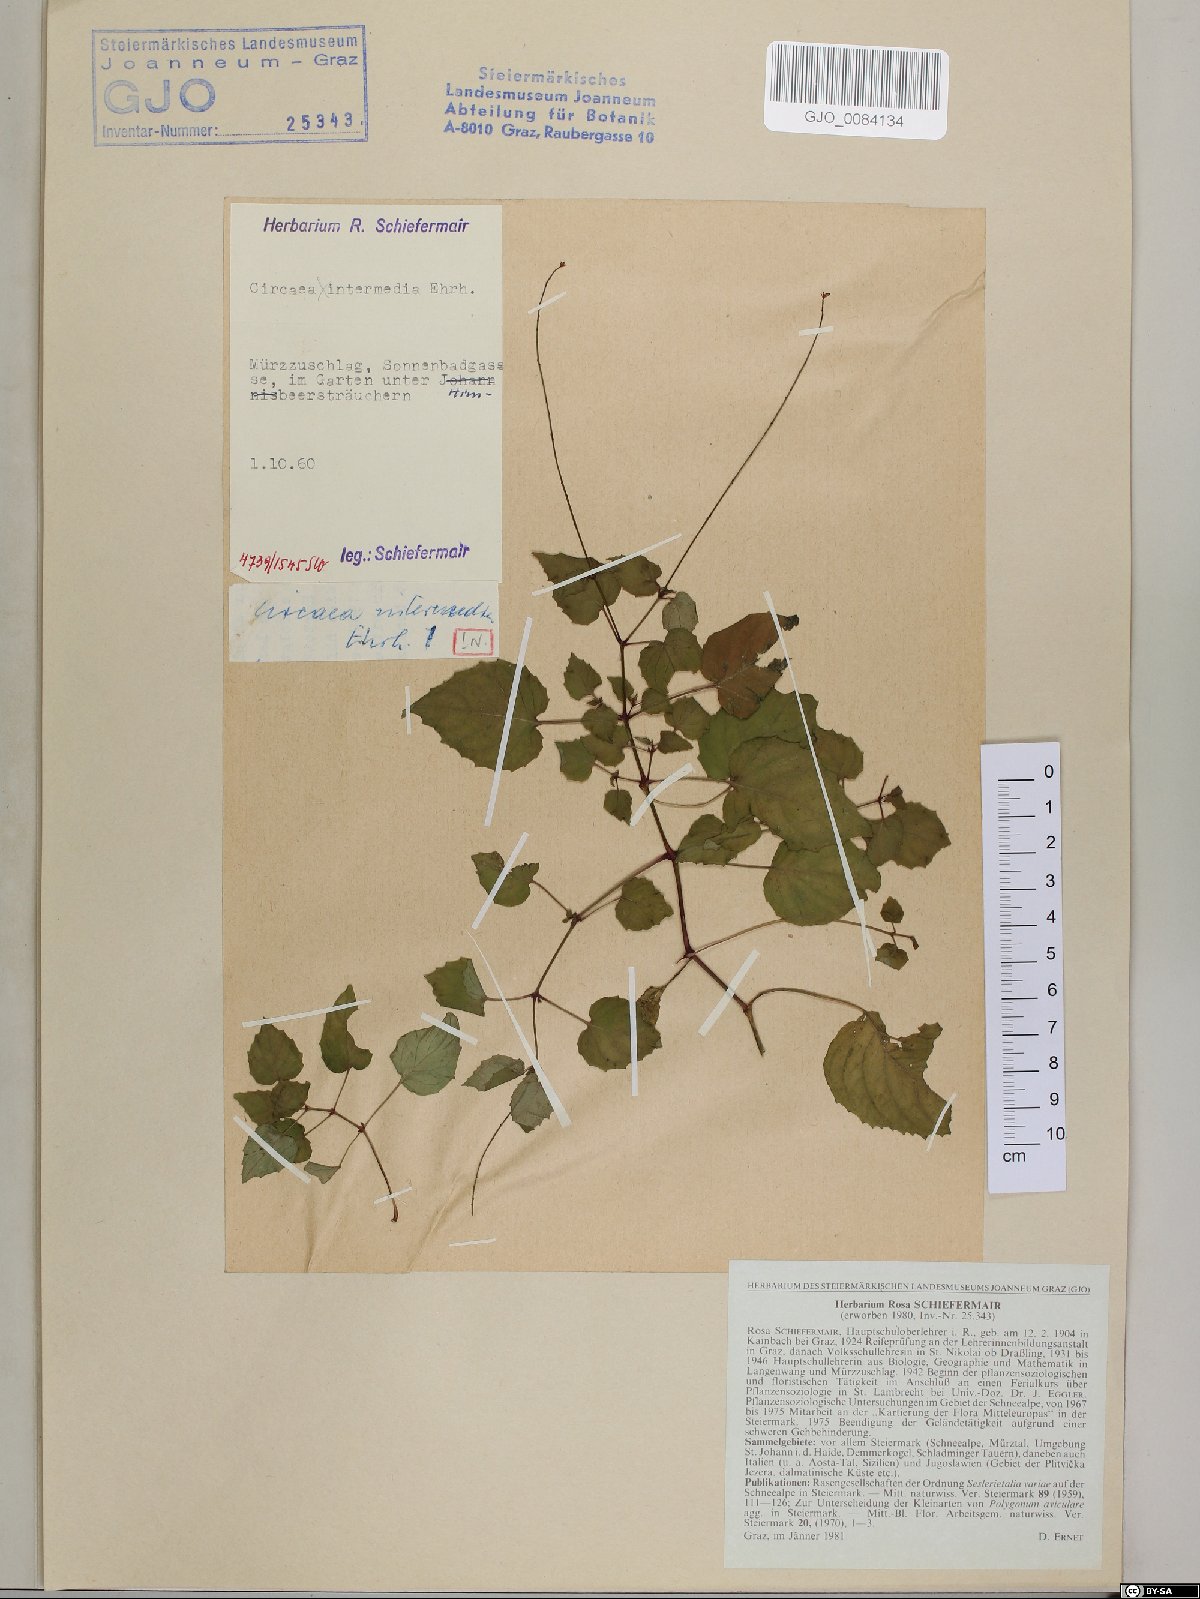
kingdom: Plantae
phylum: Tracheophyta
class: Magnoliopsida
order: Myrtales
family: Onagraceae
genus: Circaea
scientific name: Circaea intermedia
